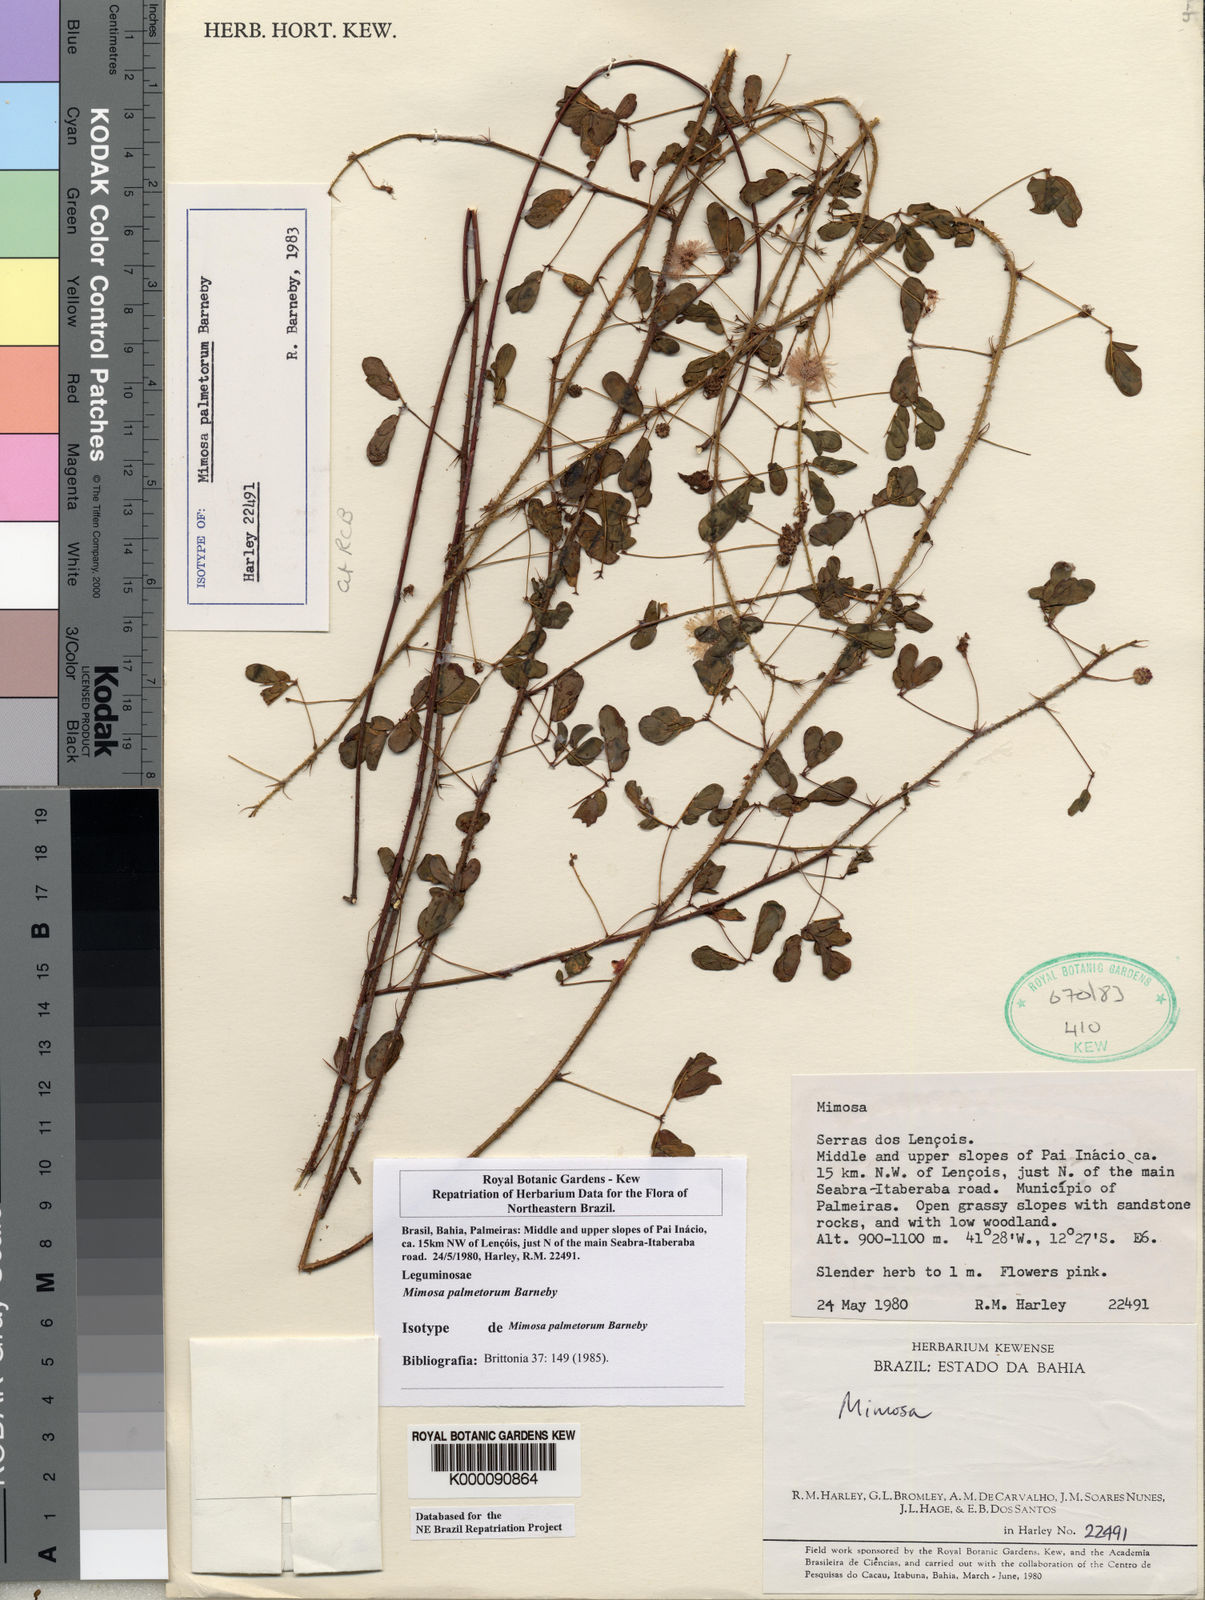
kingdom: Plantae
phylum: Tracheophyta
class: Magnoliopsida
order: Fabales
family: Fabaceae
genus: Mimosa
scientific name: Mimosa palmetorum
